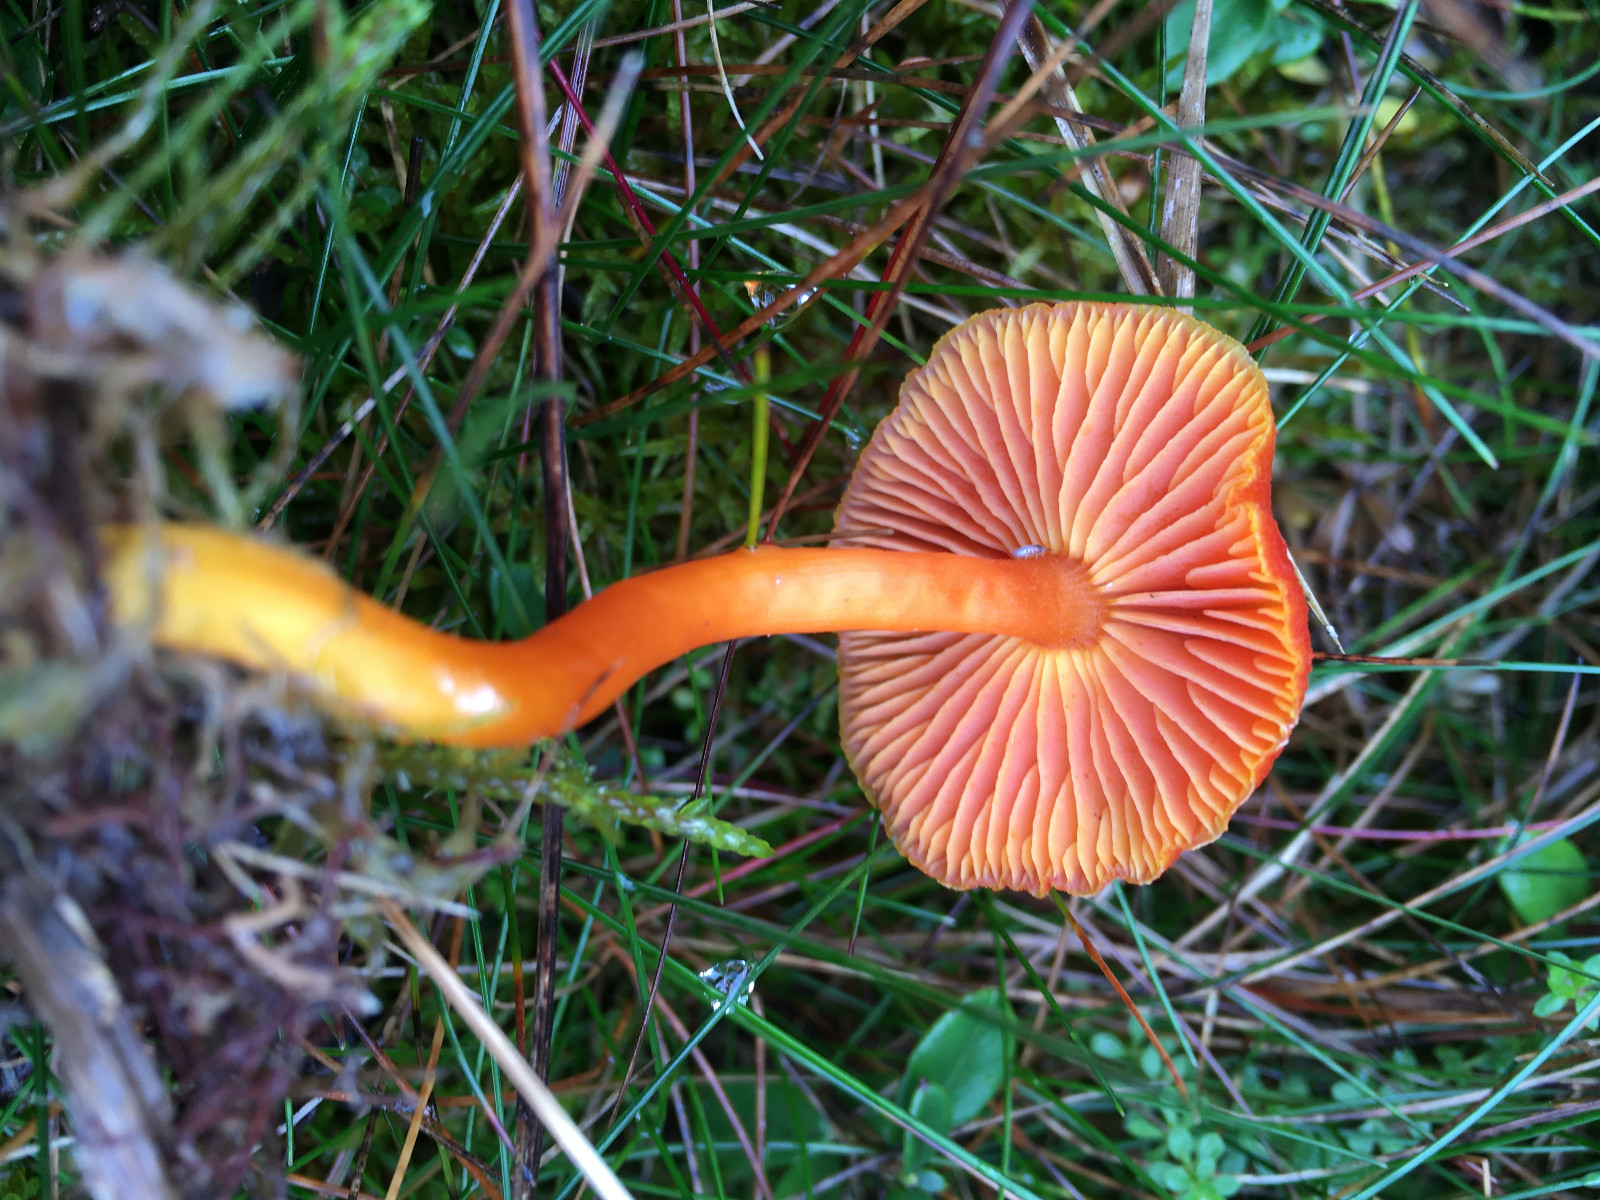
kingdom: Fungi
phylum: Basidiomycota
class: Agaricomycetes
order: Agaricales
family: Hygrophoraceae
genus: Hygrocybe
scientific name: Hygrocybe miniata
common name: mønje-vokshat
